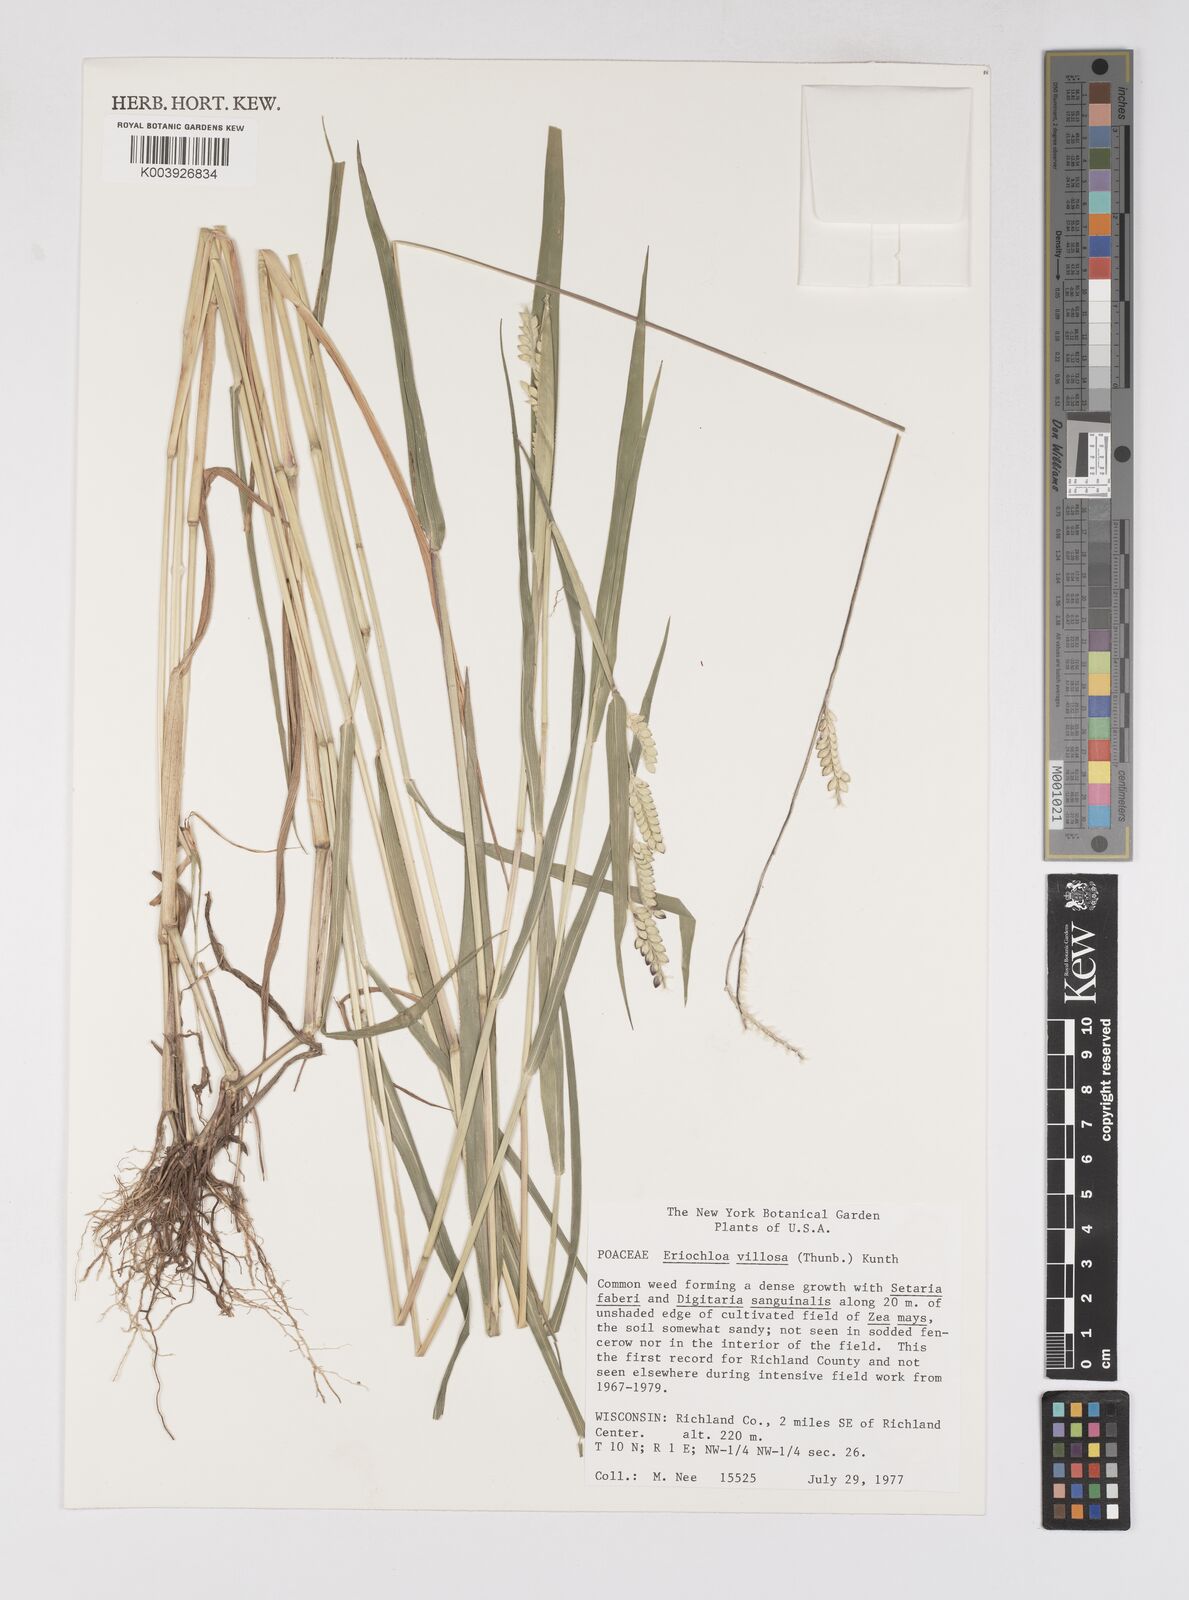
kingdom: Plantae
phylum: Tracheophyta
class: Liliopsida
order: Poales
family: Poaceae
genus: Eriochloa
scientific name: Eriochloa villosa
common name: Hairy cupgrass
